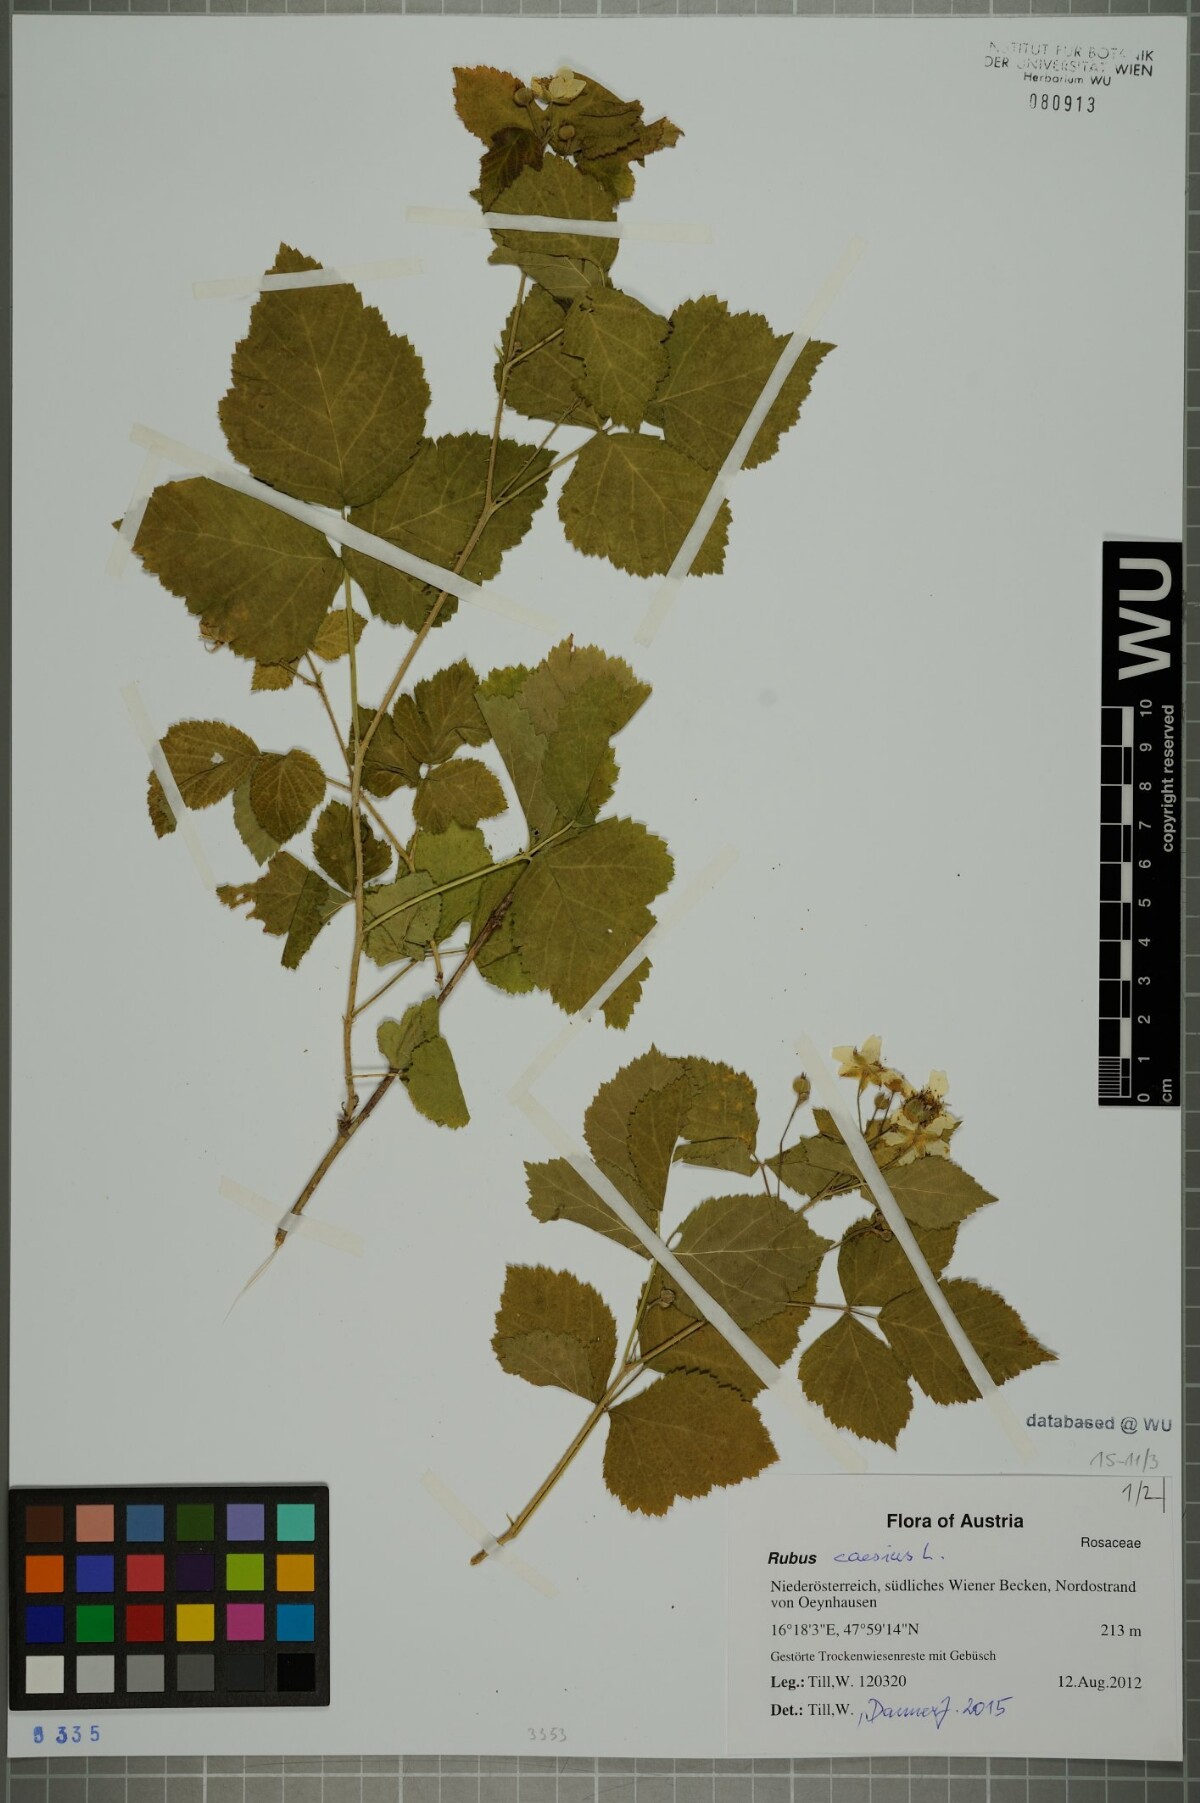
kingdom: Plantae
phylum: Tracheophyta
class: Magnoliopsida
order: Rosales
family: Rosaceae
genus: Rubus
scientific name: Rubus caesius
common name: Dewberry
